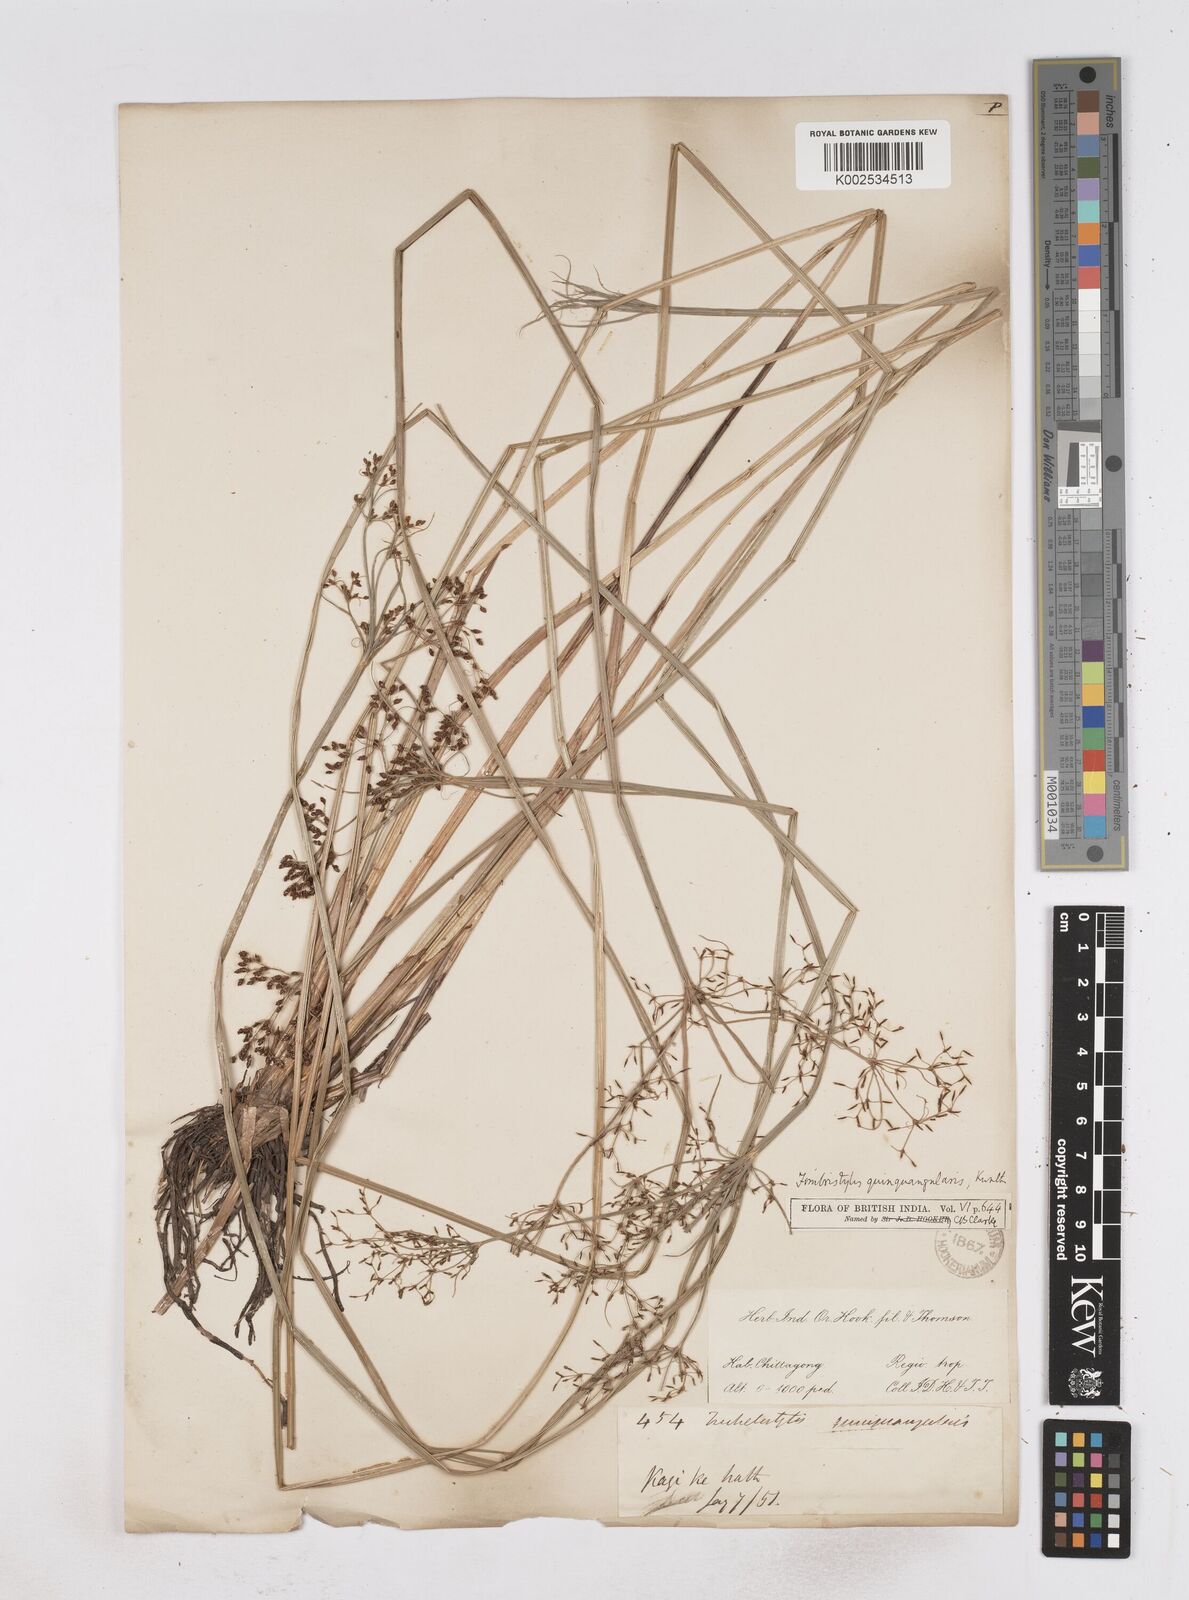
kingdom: Plantae
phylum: Tracheophyta
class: Liliopsida
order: Poales
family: Cyperaceae
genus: Fimbristylis
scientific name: Fimbristylis quinquangularis
